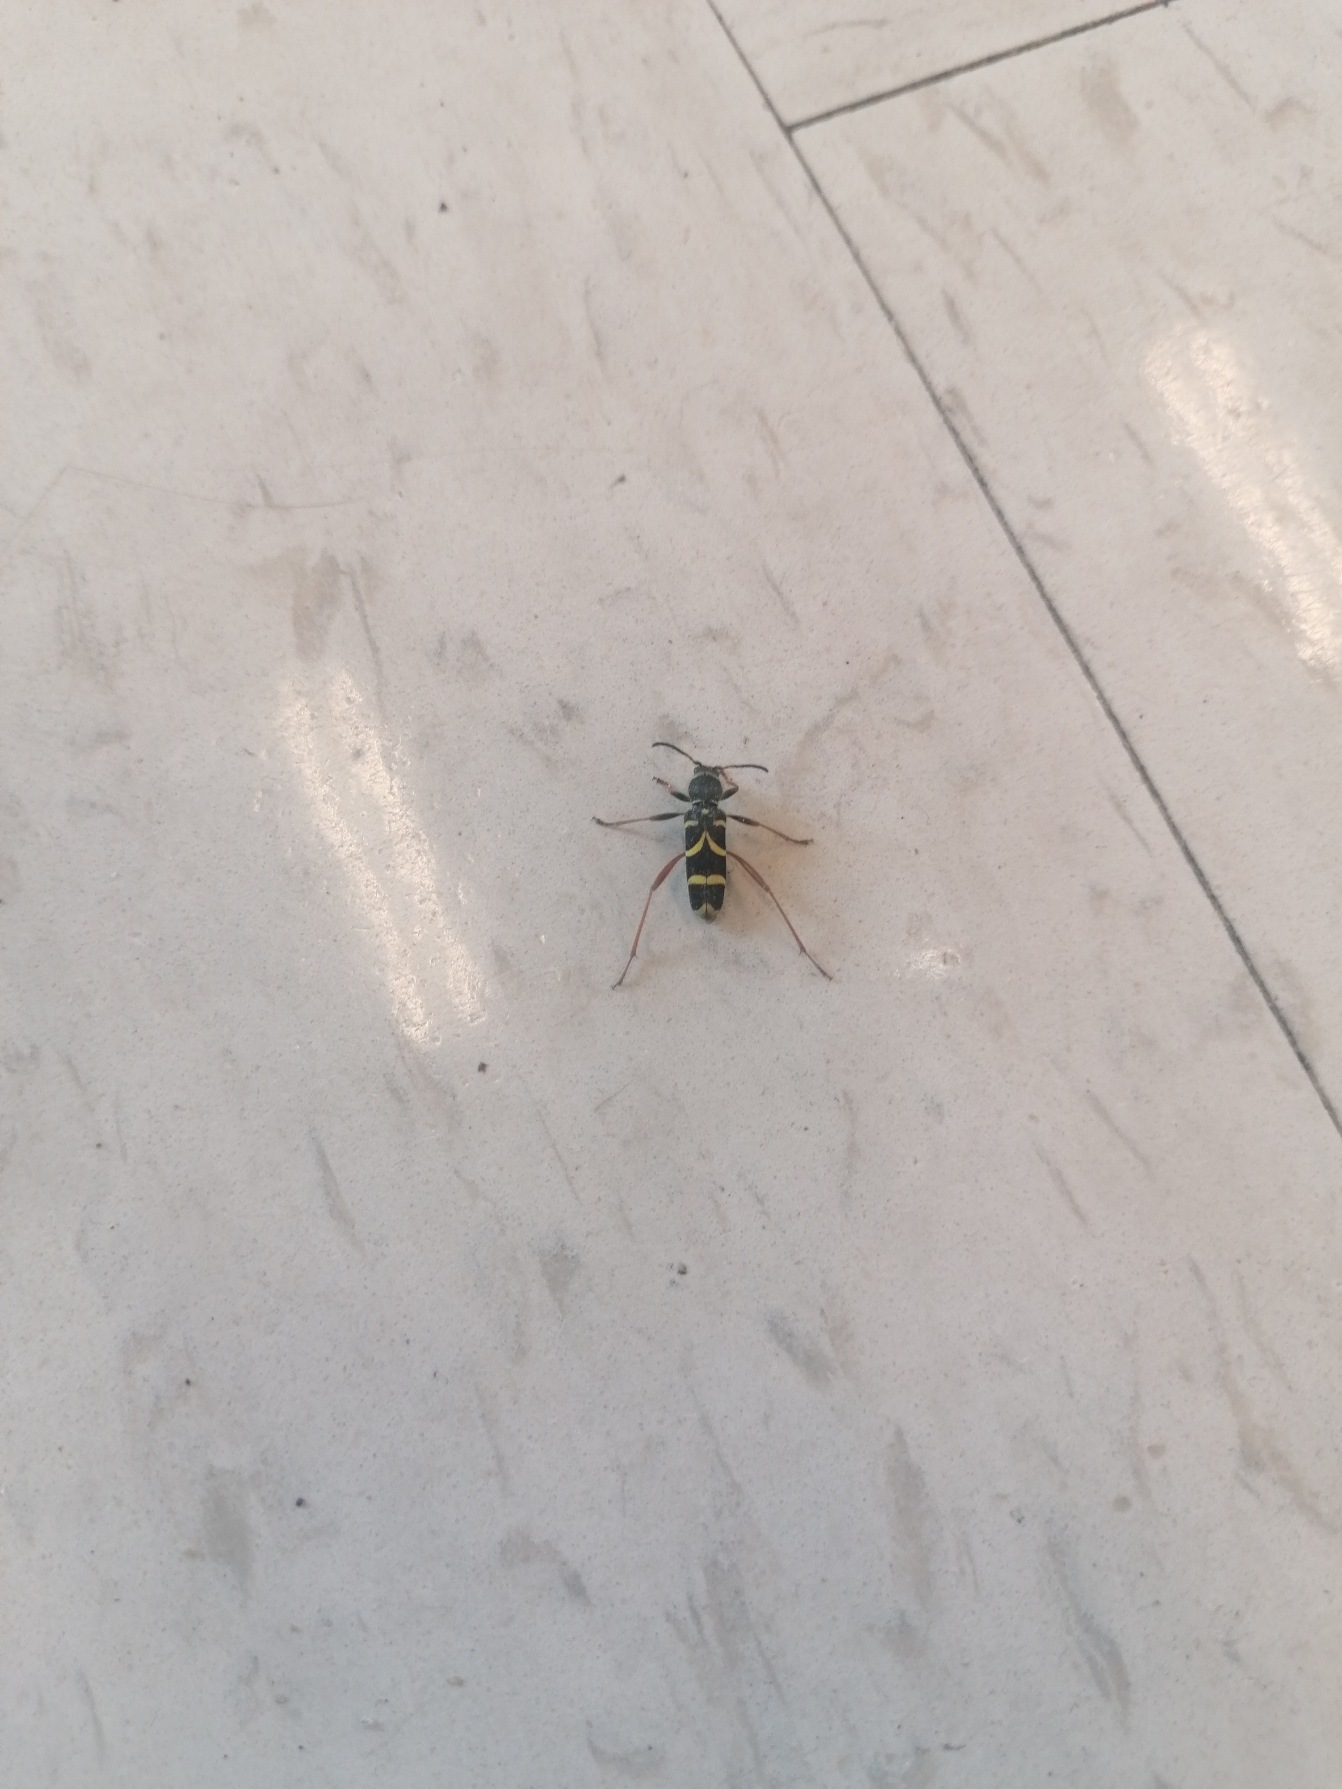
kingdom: Animalia
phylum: Arthropoda
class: Insecta
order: Coleoptera
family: Cerambycidae
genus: Clytus
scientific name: Clytus arietis
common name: Lille hvepsebuk
